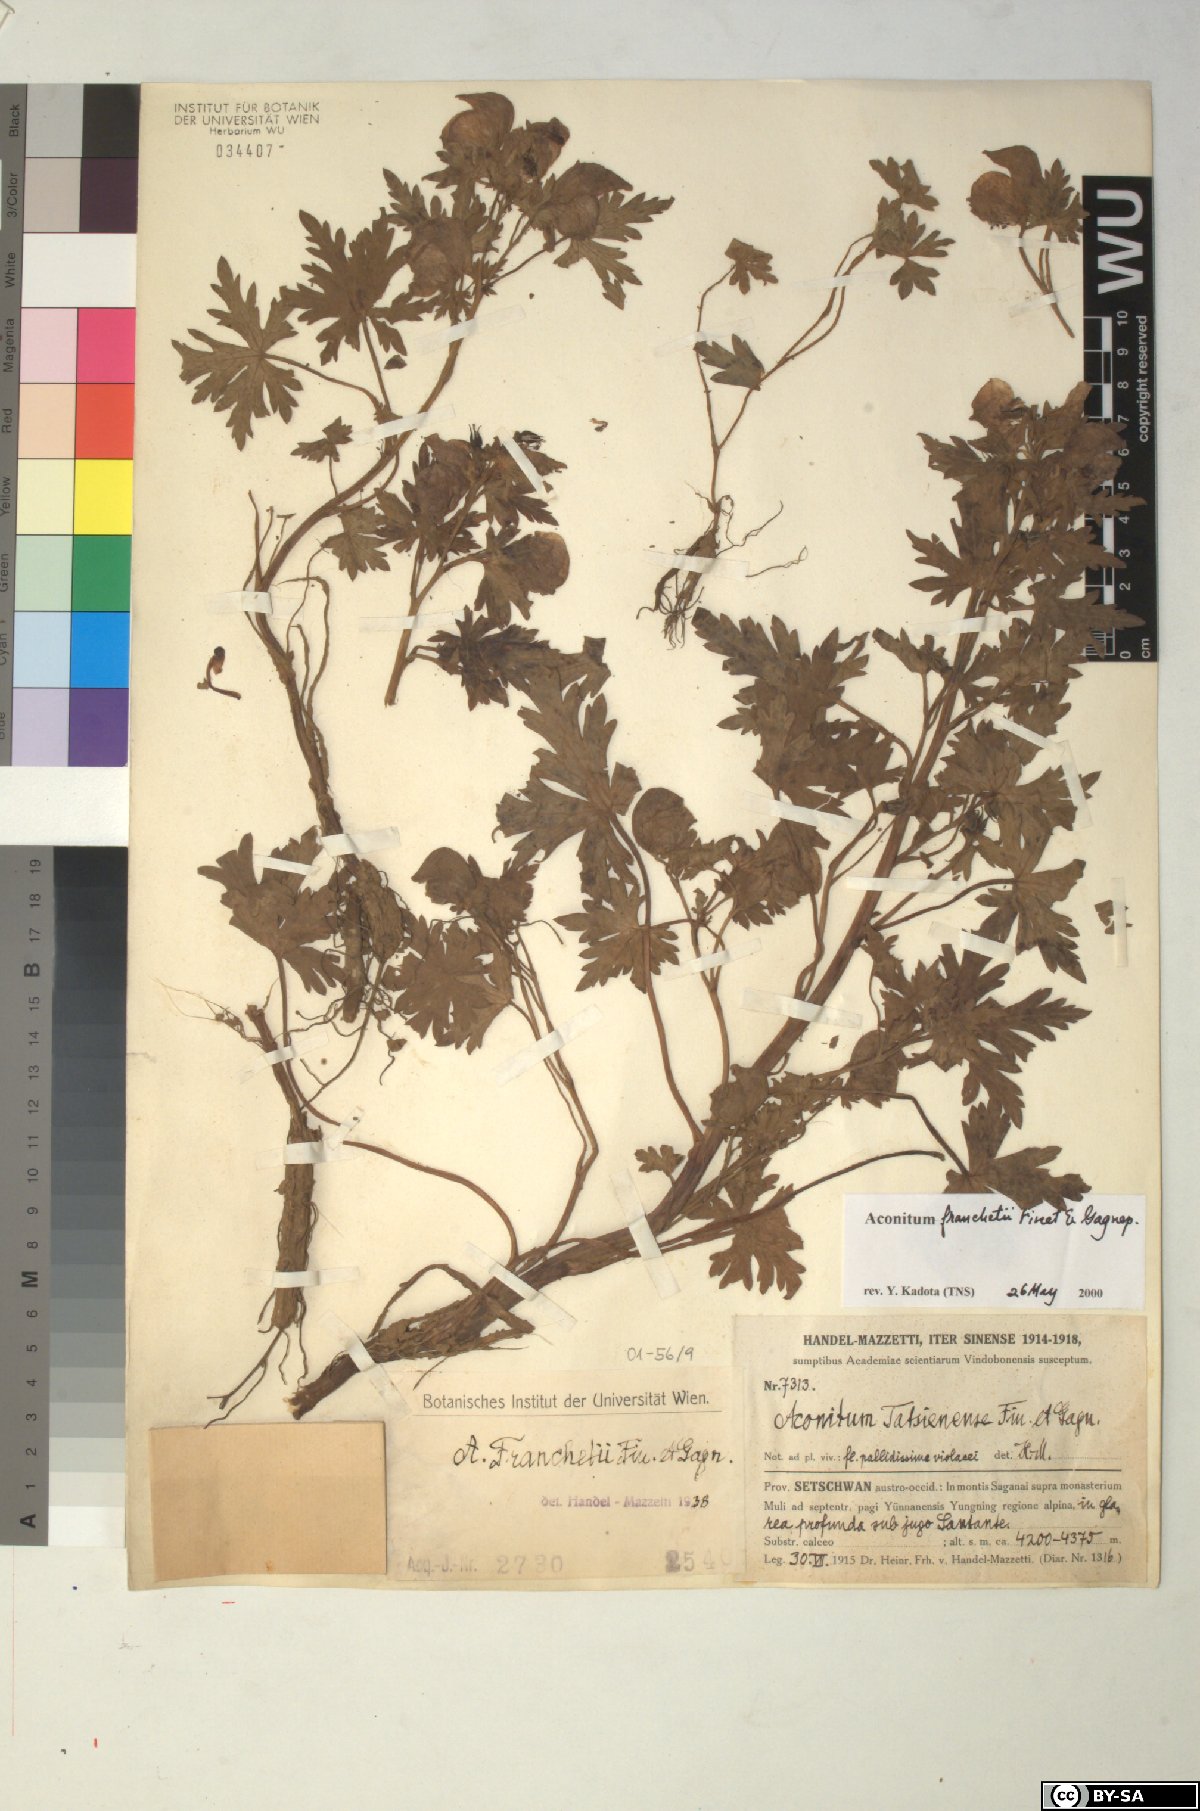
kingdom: Plantae
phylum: Tracheophyta
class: Magnoliopsida
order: Ranunculales
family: Ranunculaceae
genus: Aconitum
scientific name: Aconitum franchetii
